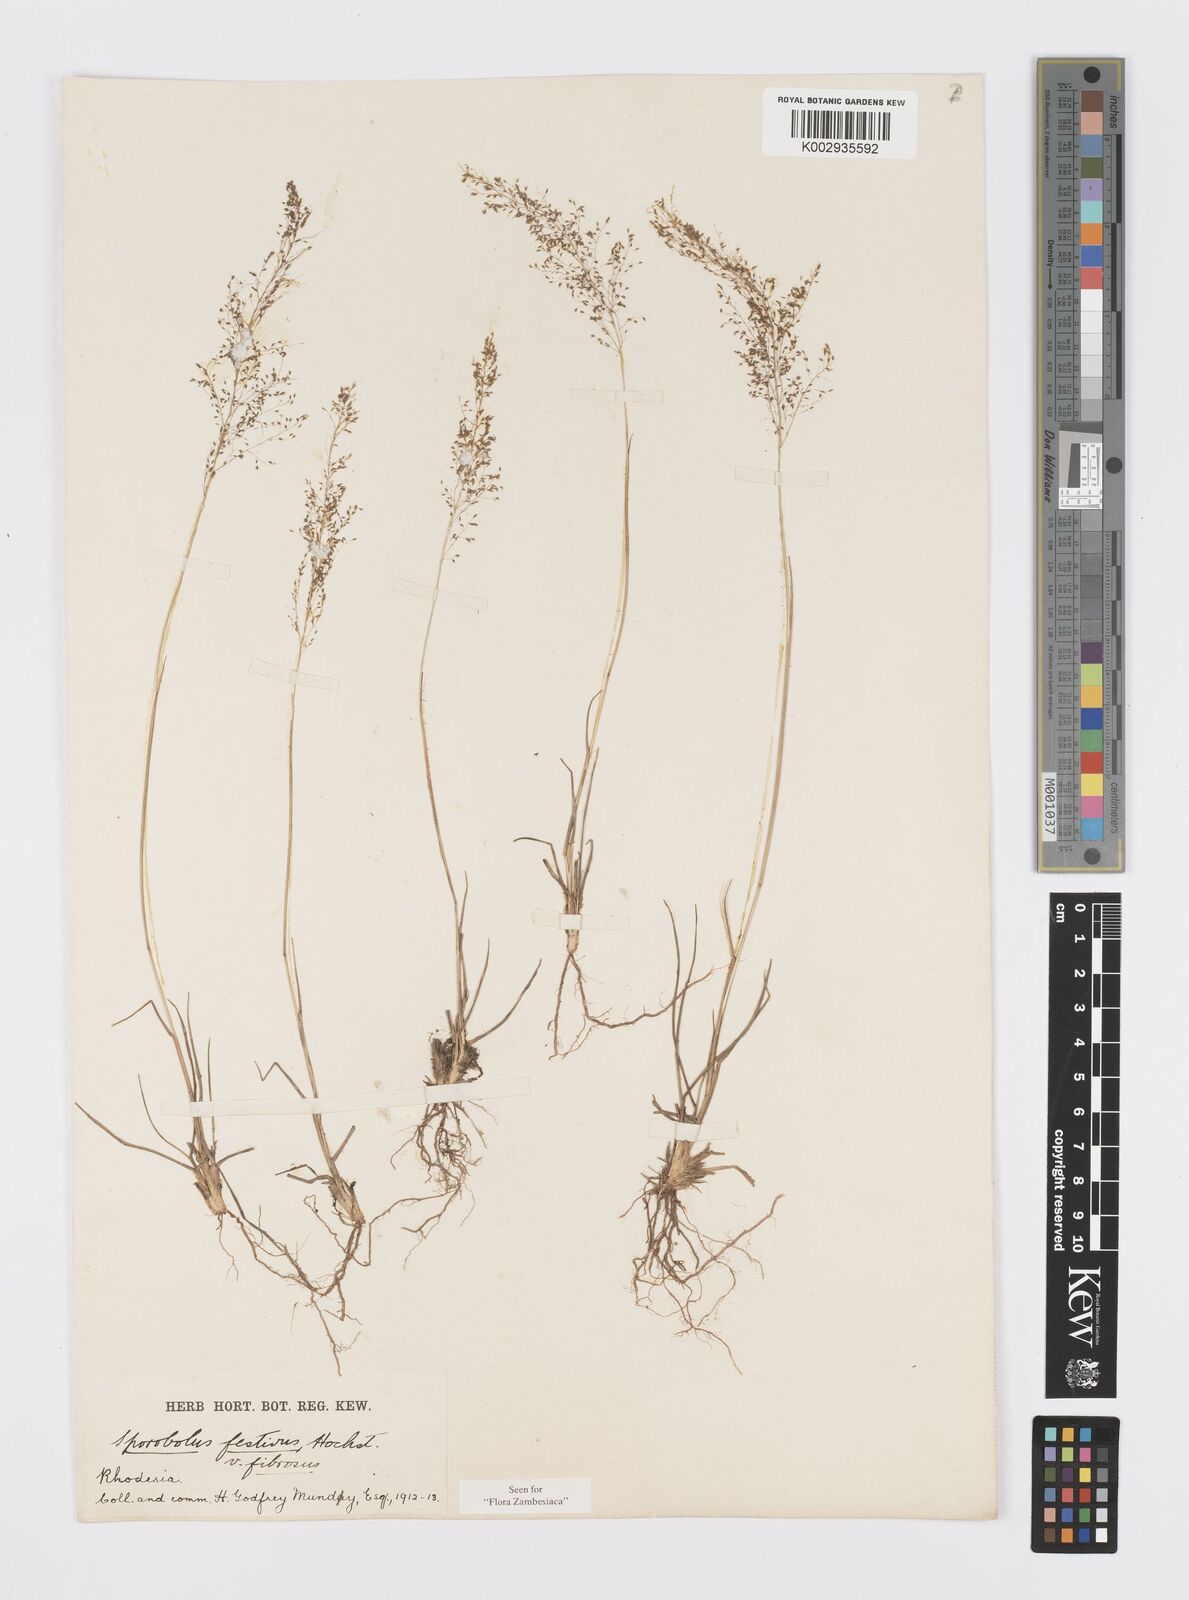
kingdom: Plantae
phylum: Tracheophyta
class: Liliopsida
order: Poales
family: Poaceae
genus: Sporobolus
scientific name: Sporobolus festivus
